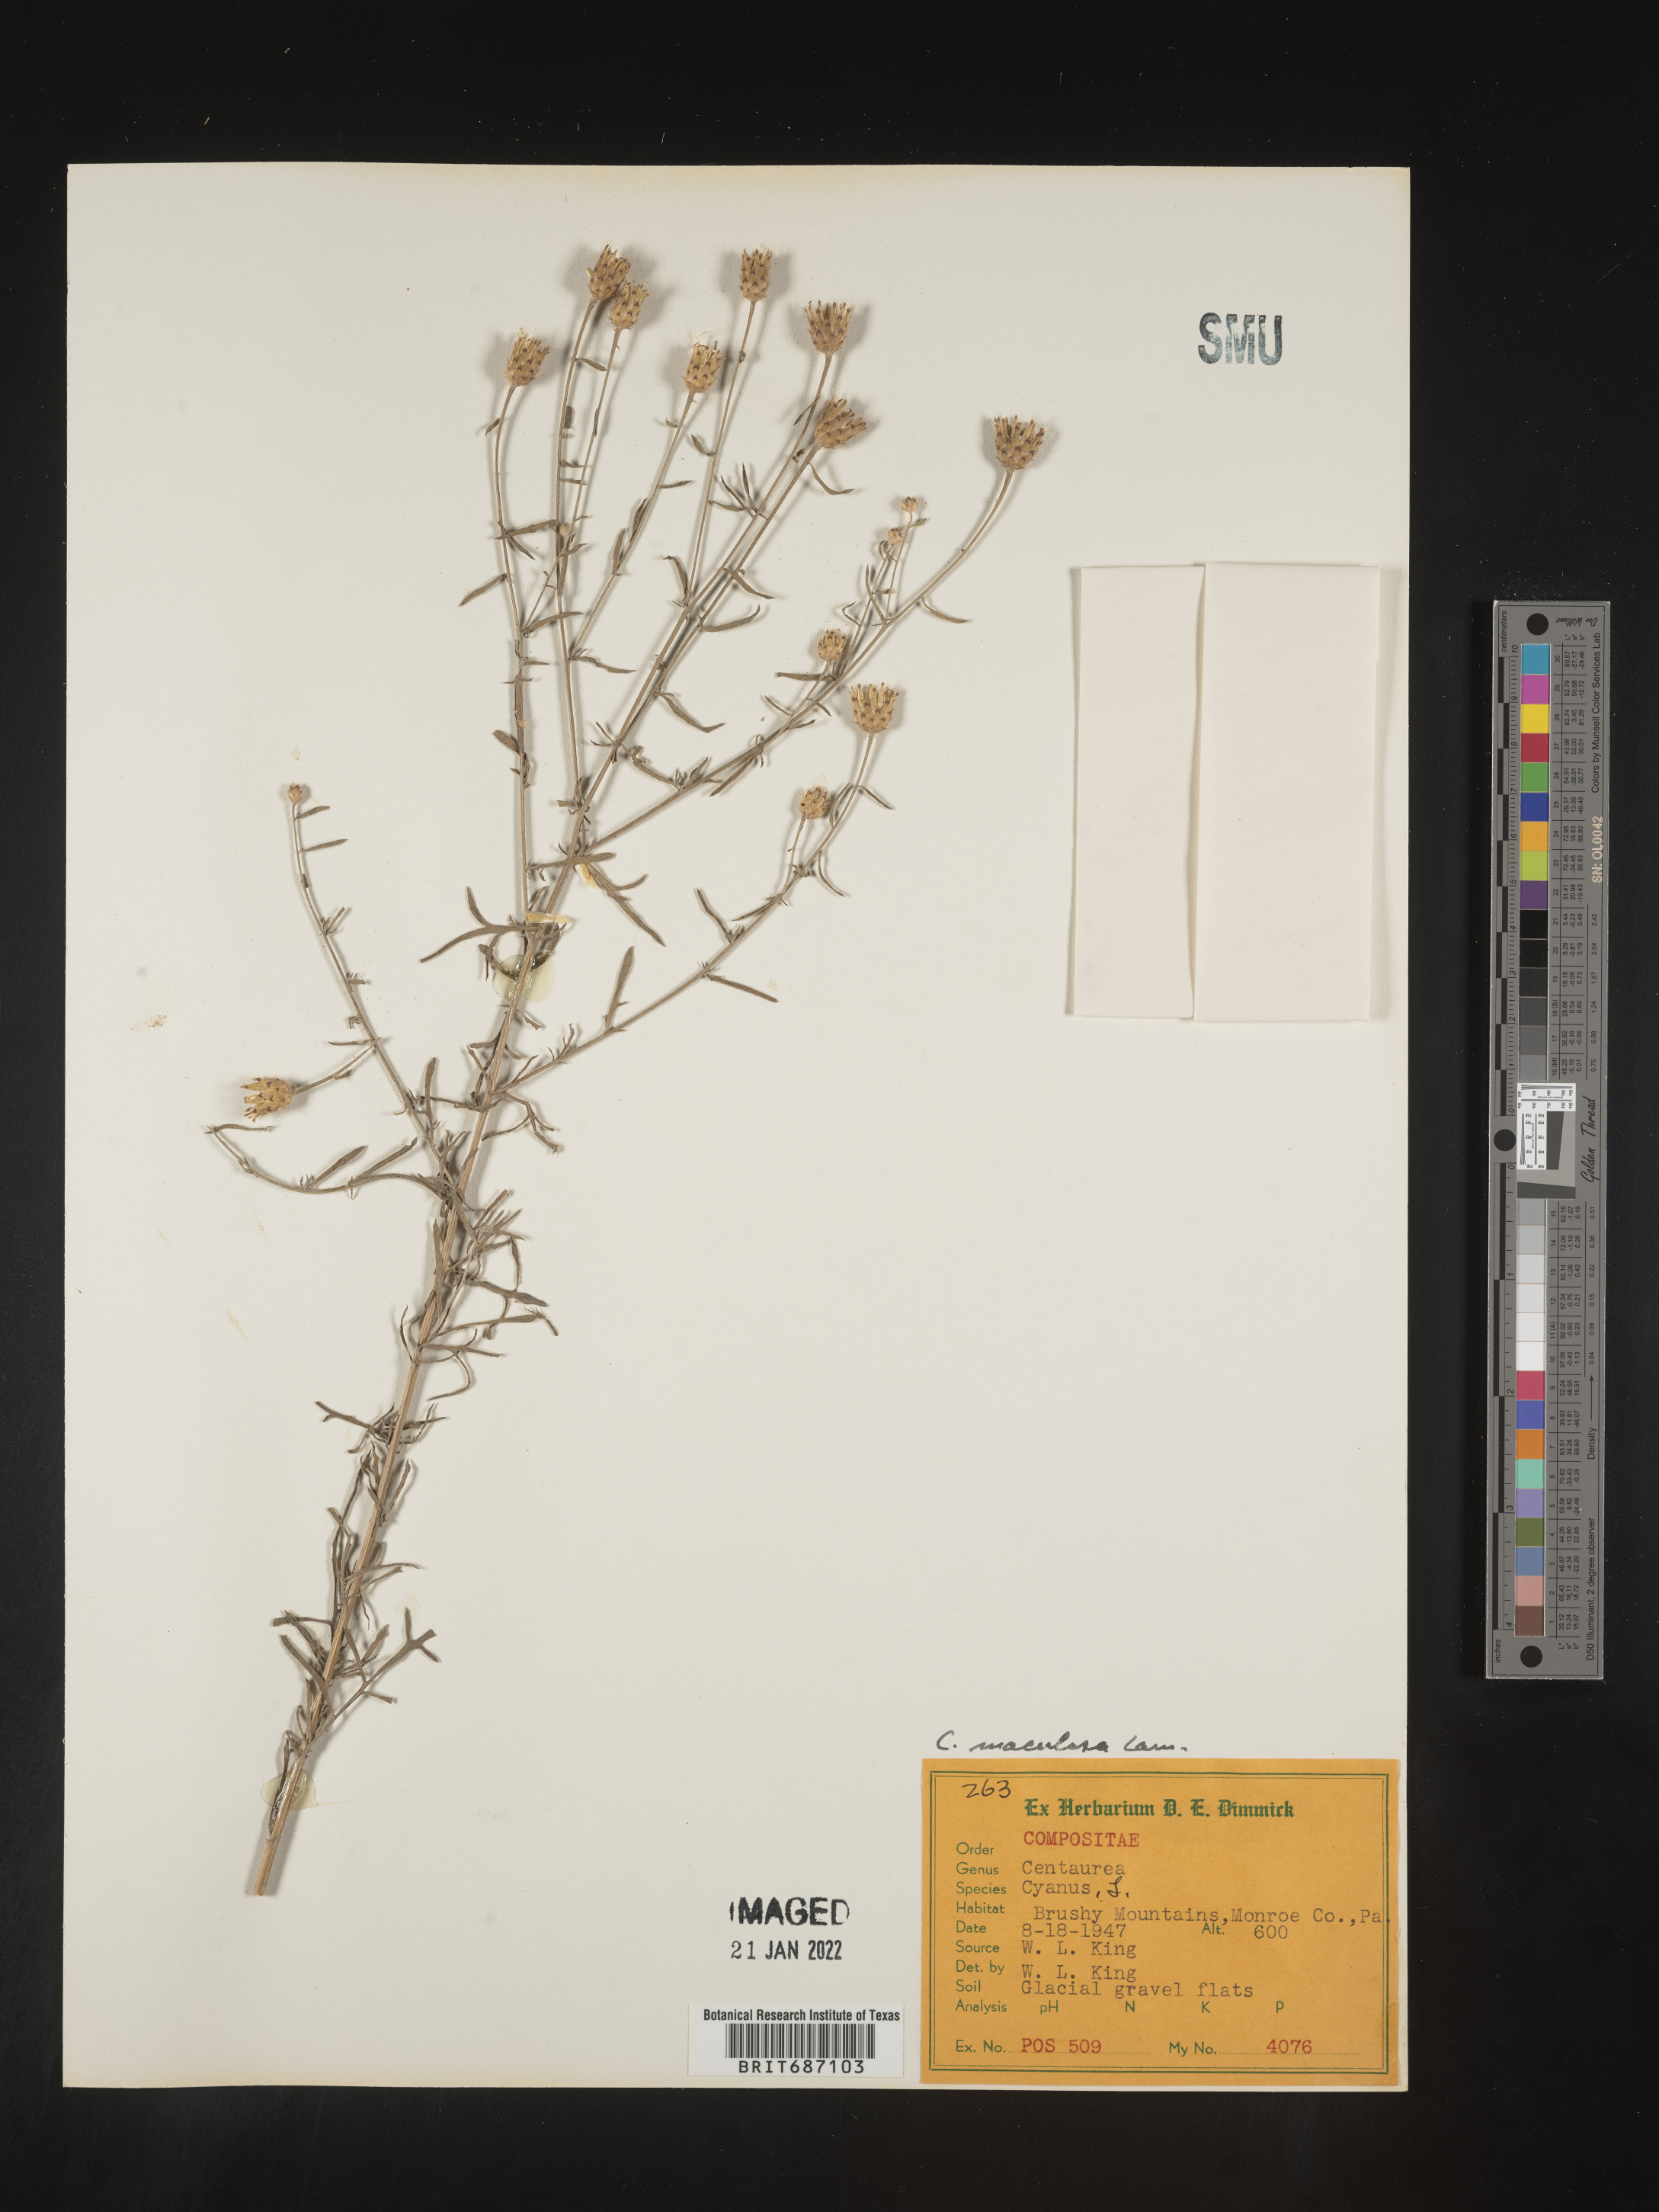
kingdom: Plantae
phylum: Tracheophyta
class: Magnoliopsida
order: Asterales
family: Asteraceae
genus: Centaurea
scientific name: Centaurea stoebe
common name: Spotted knapweed
